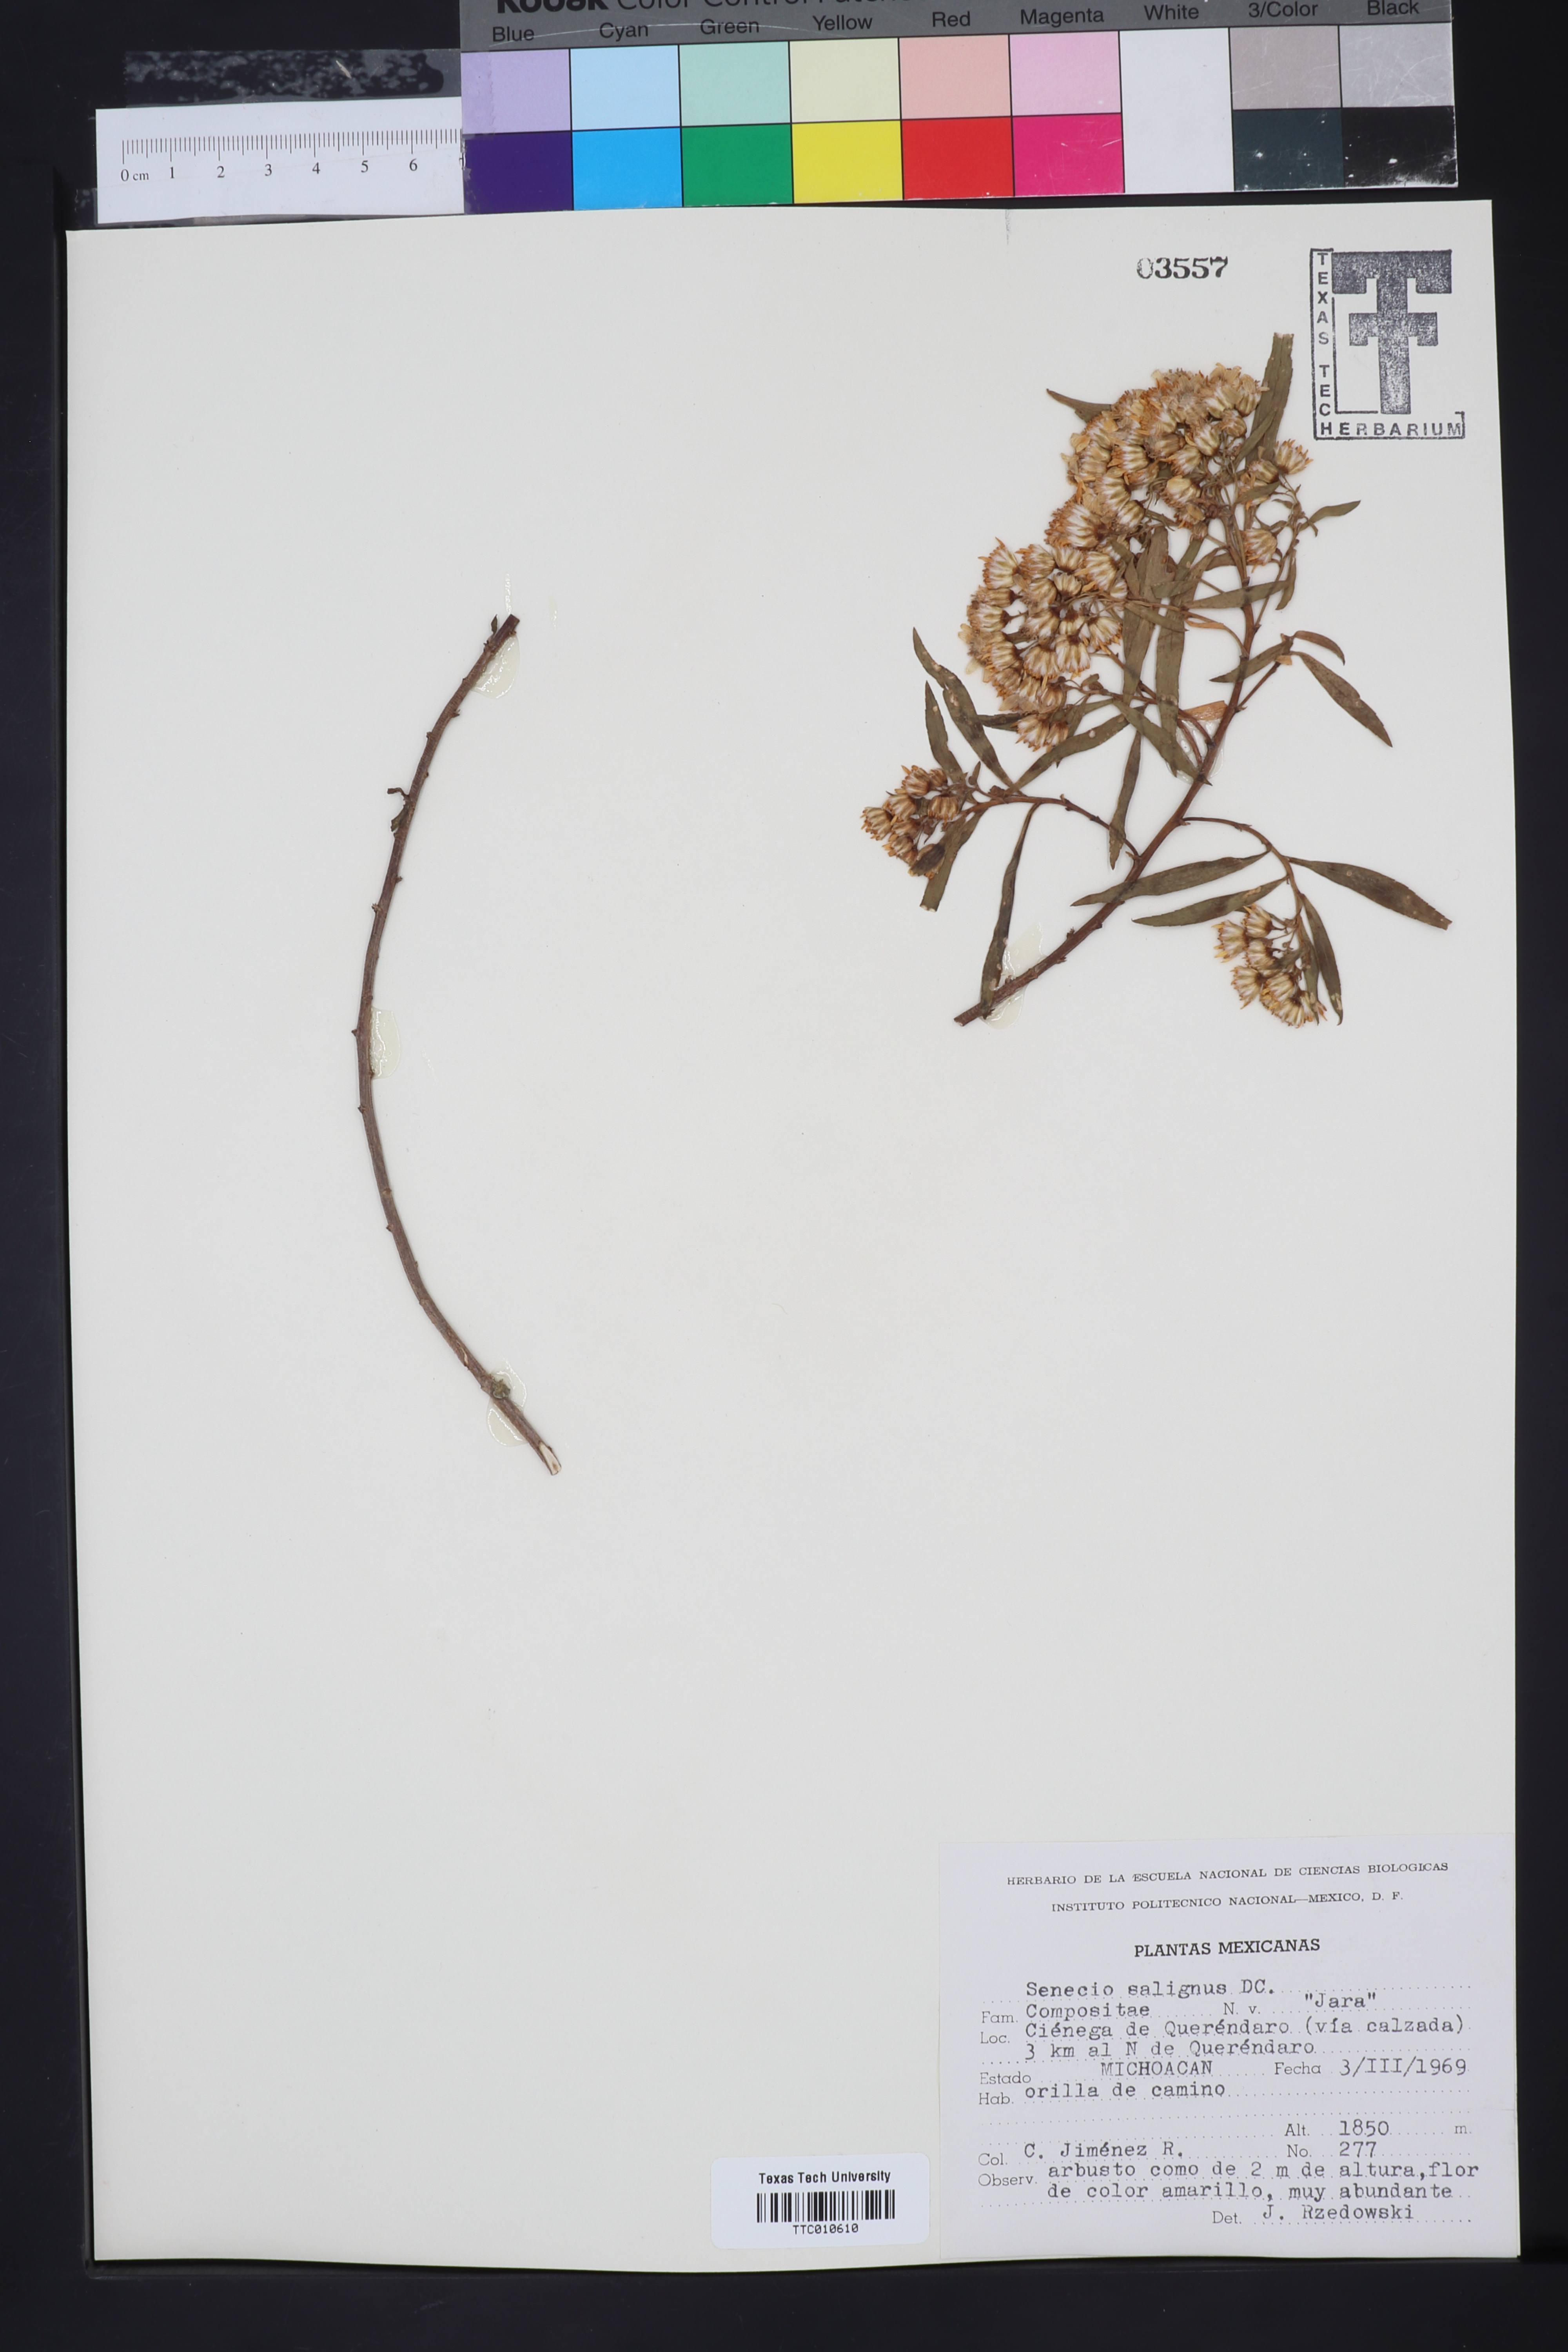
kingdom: Plantae
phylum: Tracheophyta
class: Magnoliopsida
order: Asterales
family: Asteraceae
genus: Barkleyanthus
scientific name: Barkleyanthus salicifolius
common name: Willow ragwort
